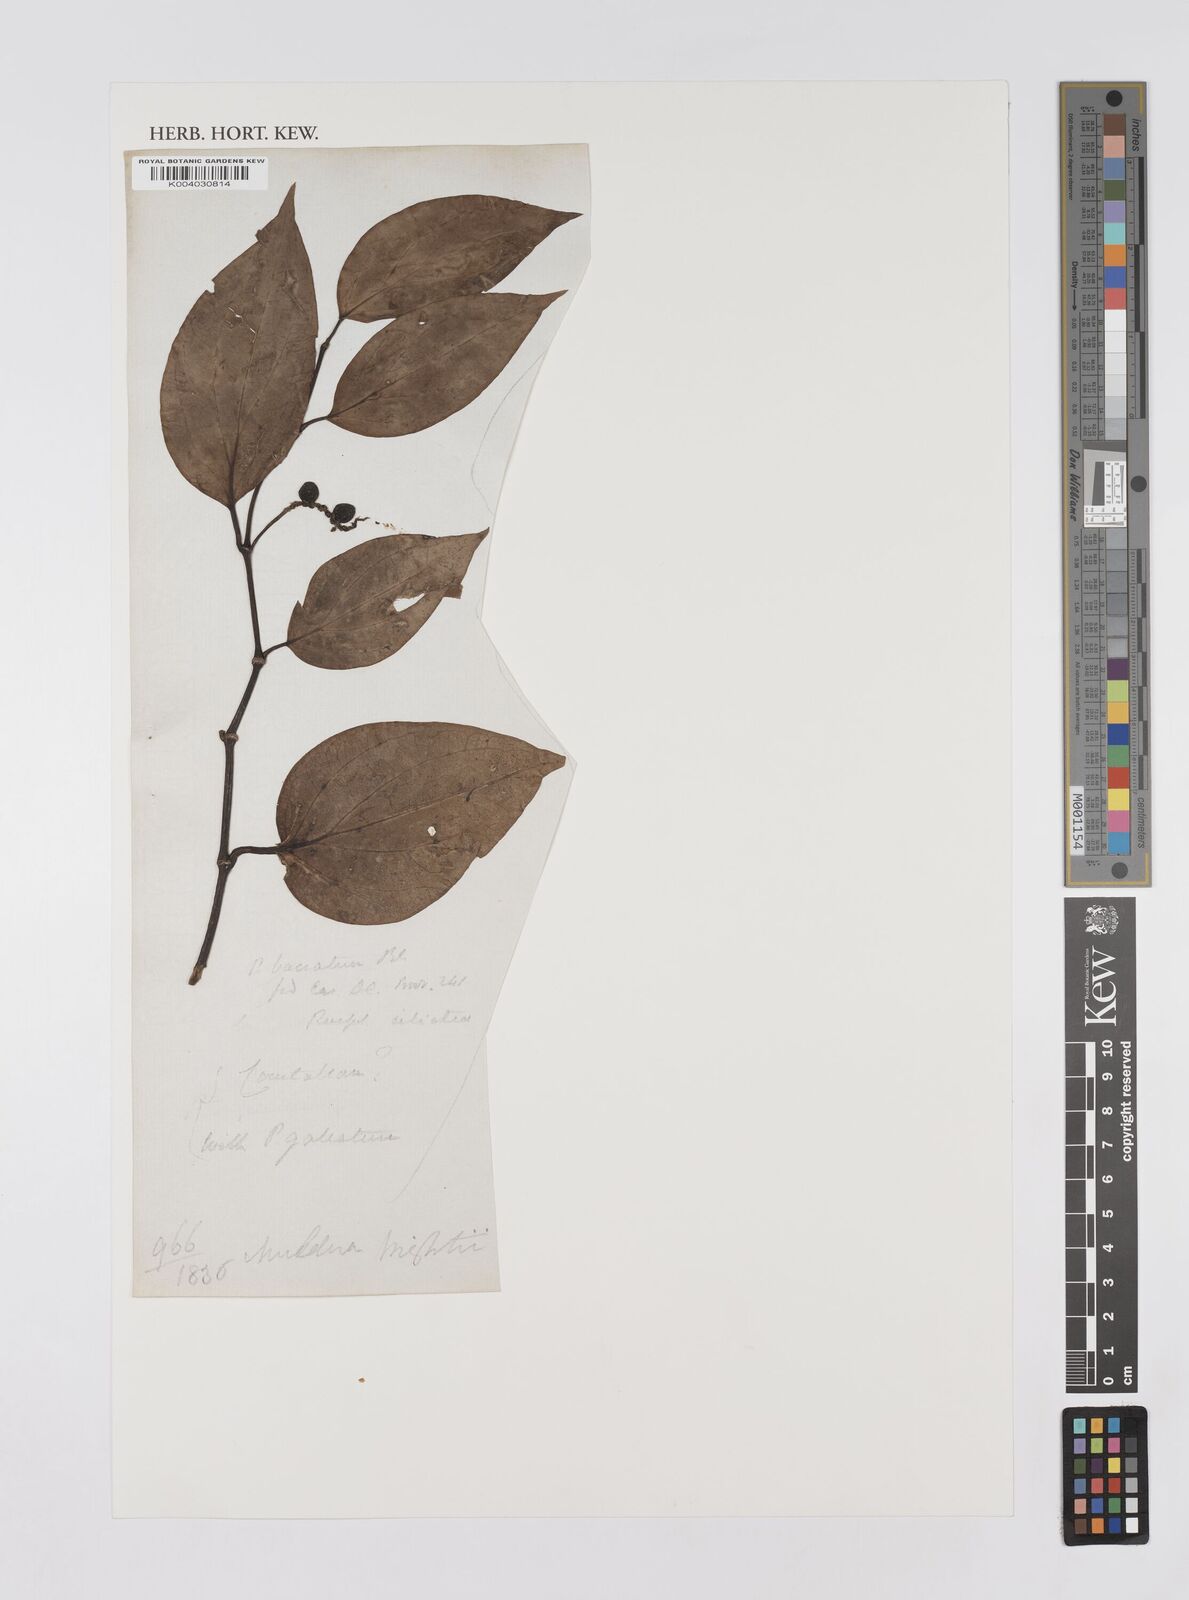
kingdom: Plantae
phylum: Tracheophyta
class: Magnoliopsida
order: Piperales
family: Piperaceae
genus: Piper
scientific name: Piper baccatum
